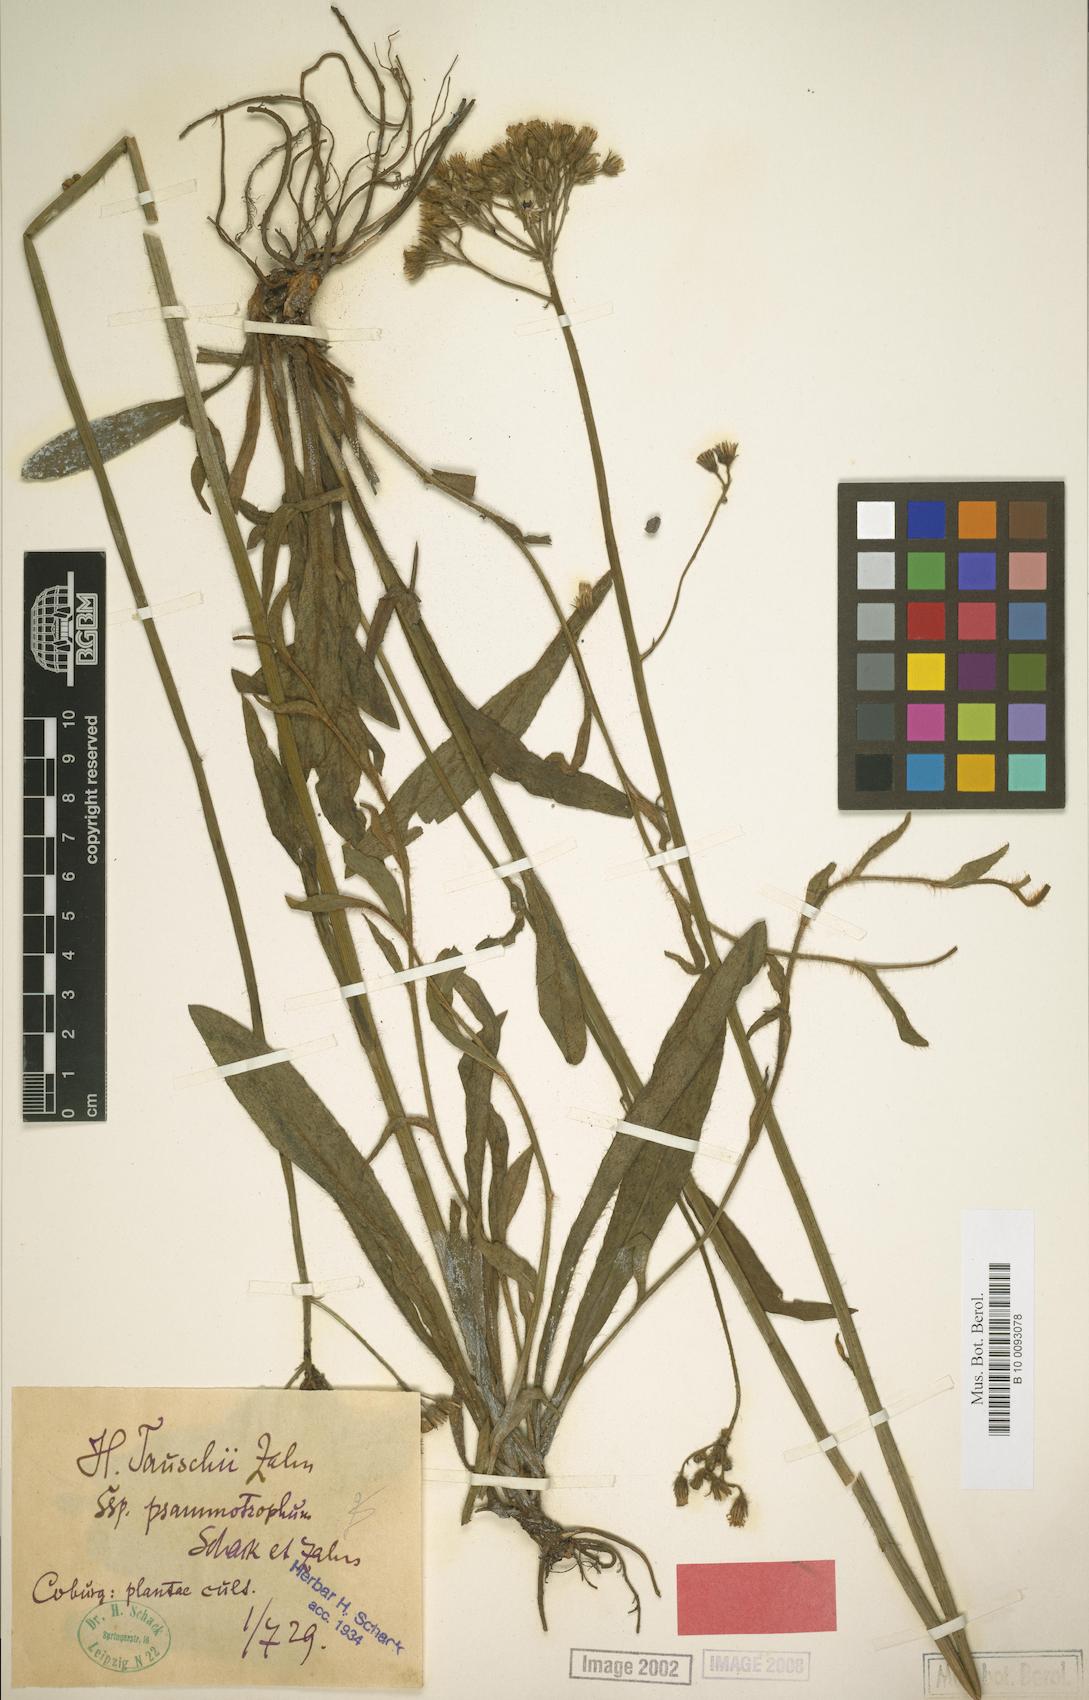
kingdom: Plantae
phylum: Tracheophyta
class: Magnoliopsida
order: Asterales
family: Asteraceae
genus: Pilosella
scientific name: Pilosella densiflora
